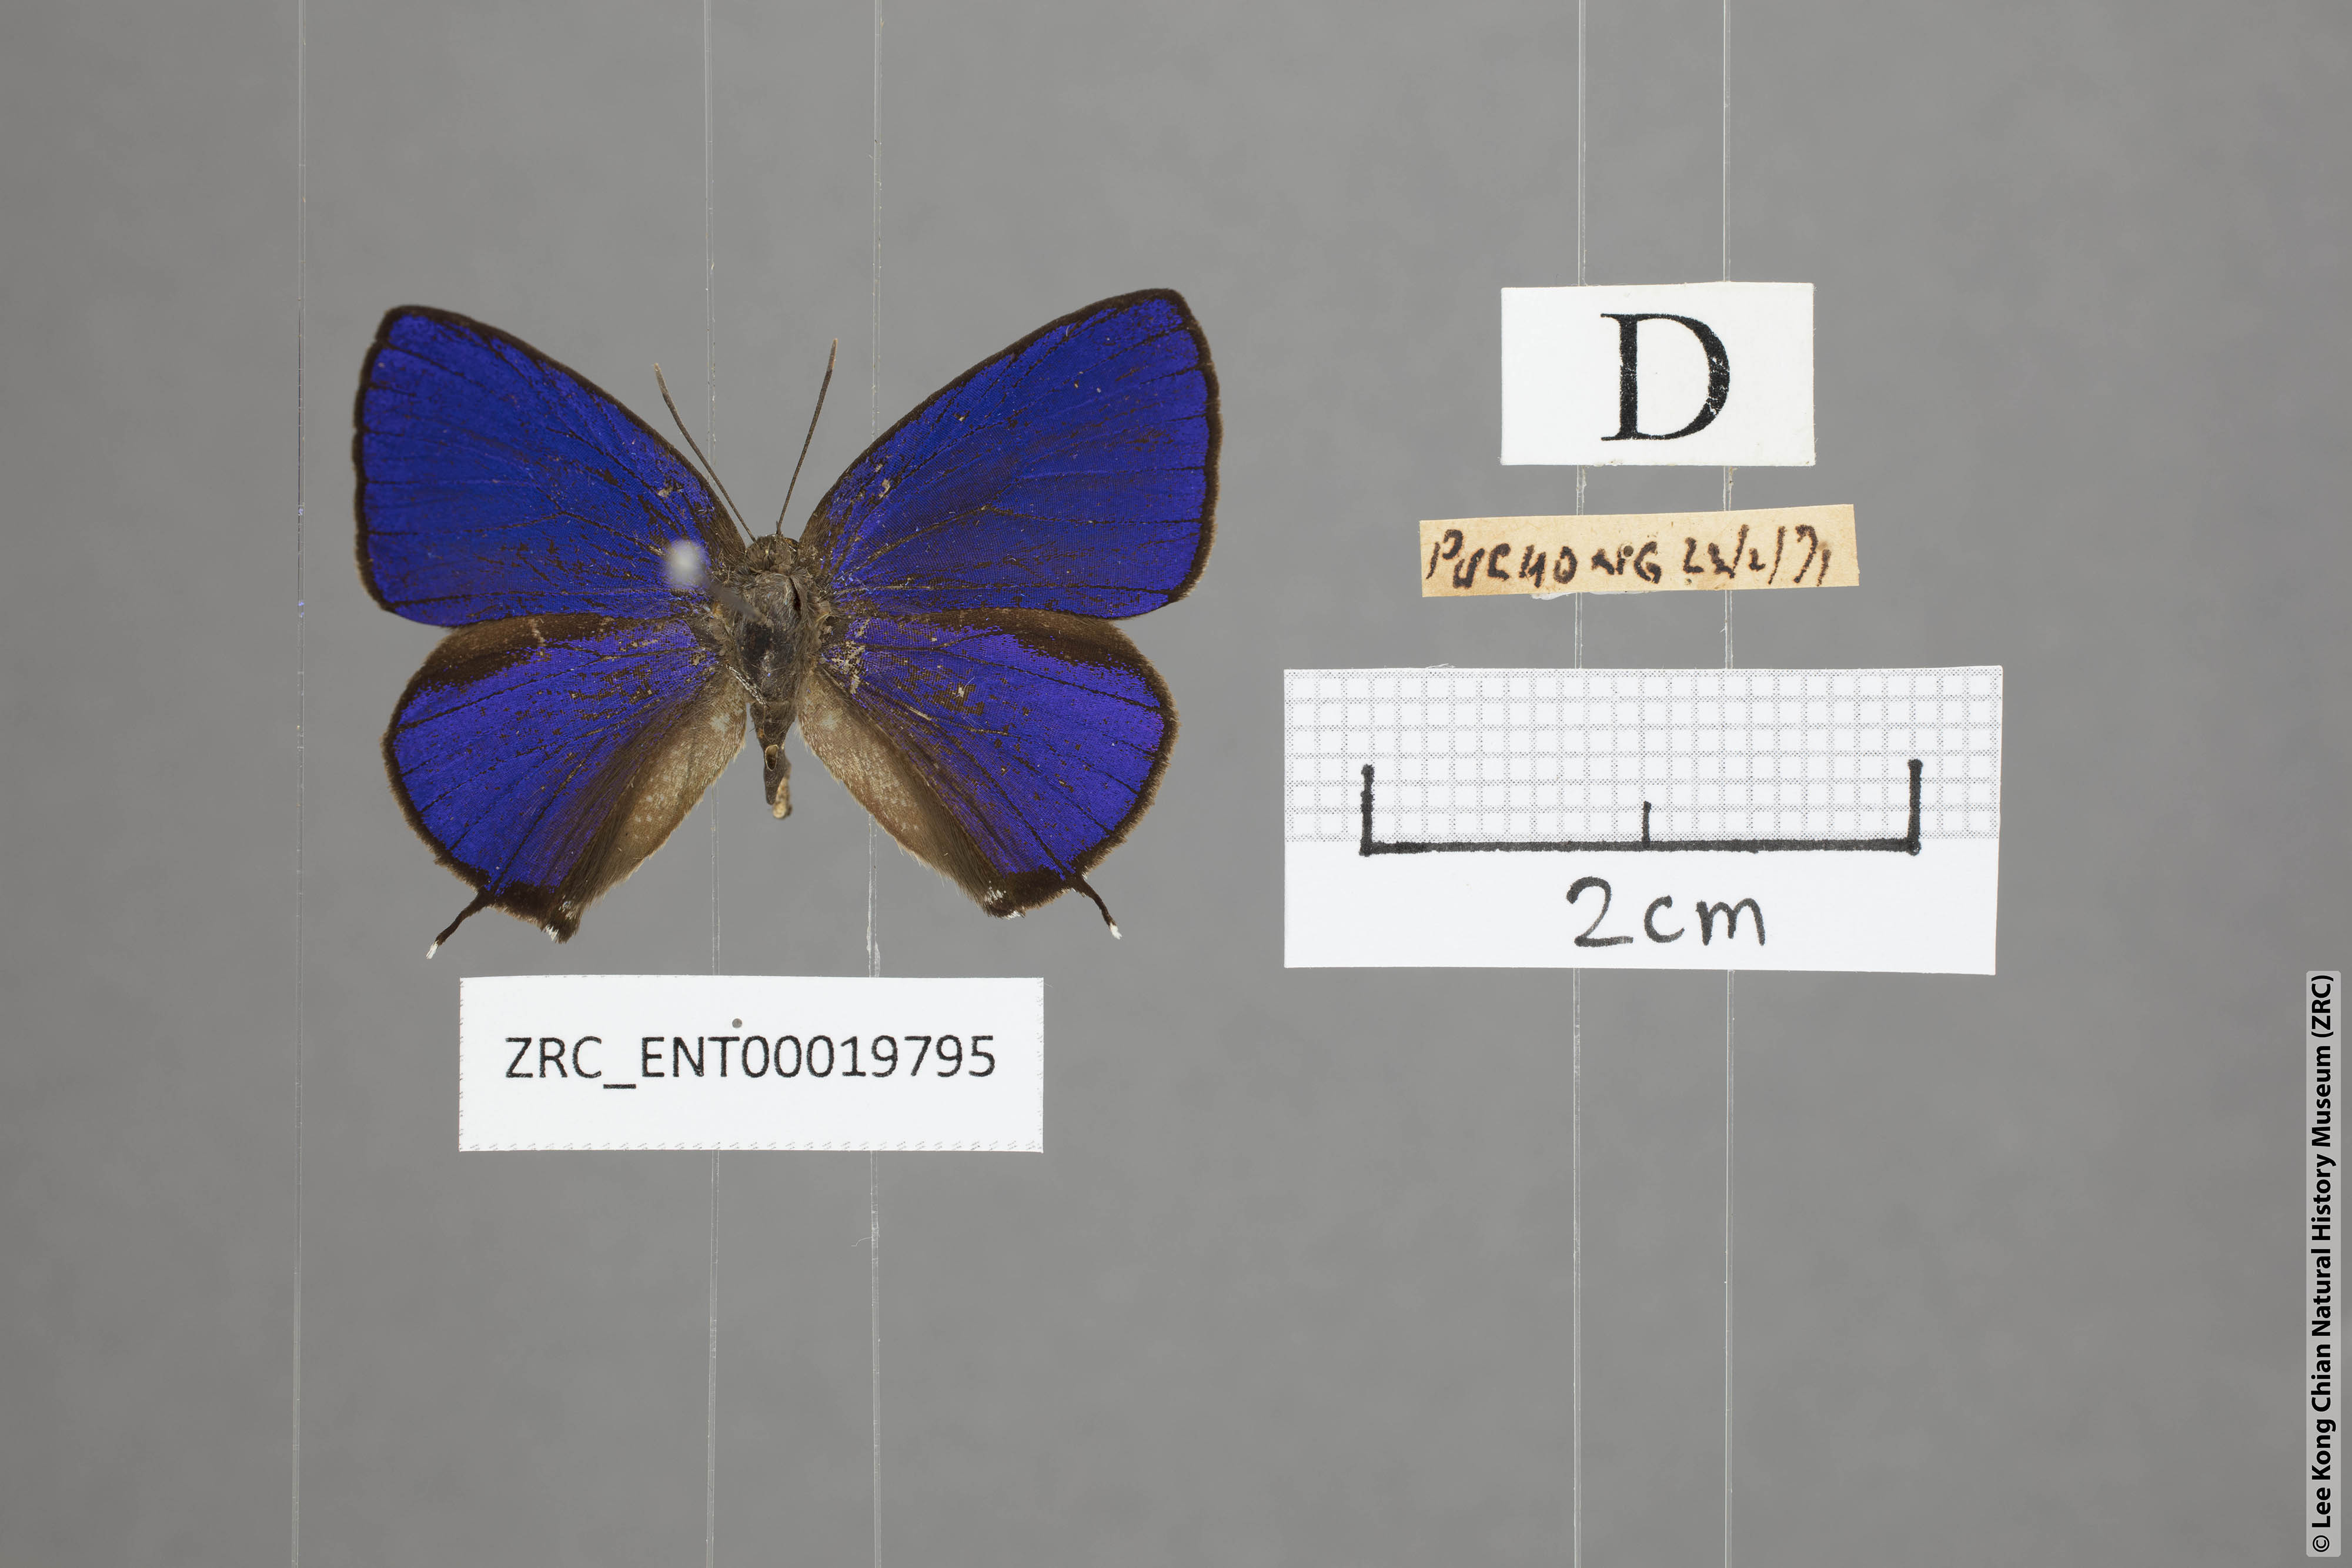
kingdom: Animalia
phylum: Arthropoda
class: Insecta
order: Lepidoptera
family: Lycaenidae
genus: Arhopala
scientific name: Arhopala phaenops
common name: Sumatran oakblue
